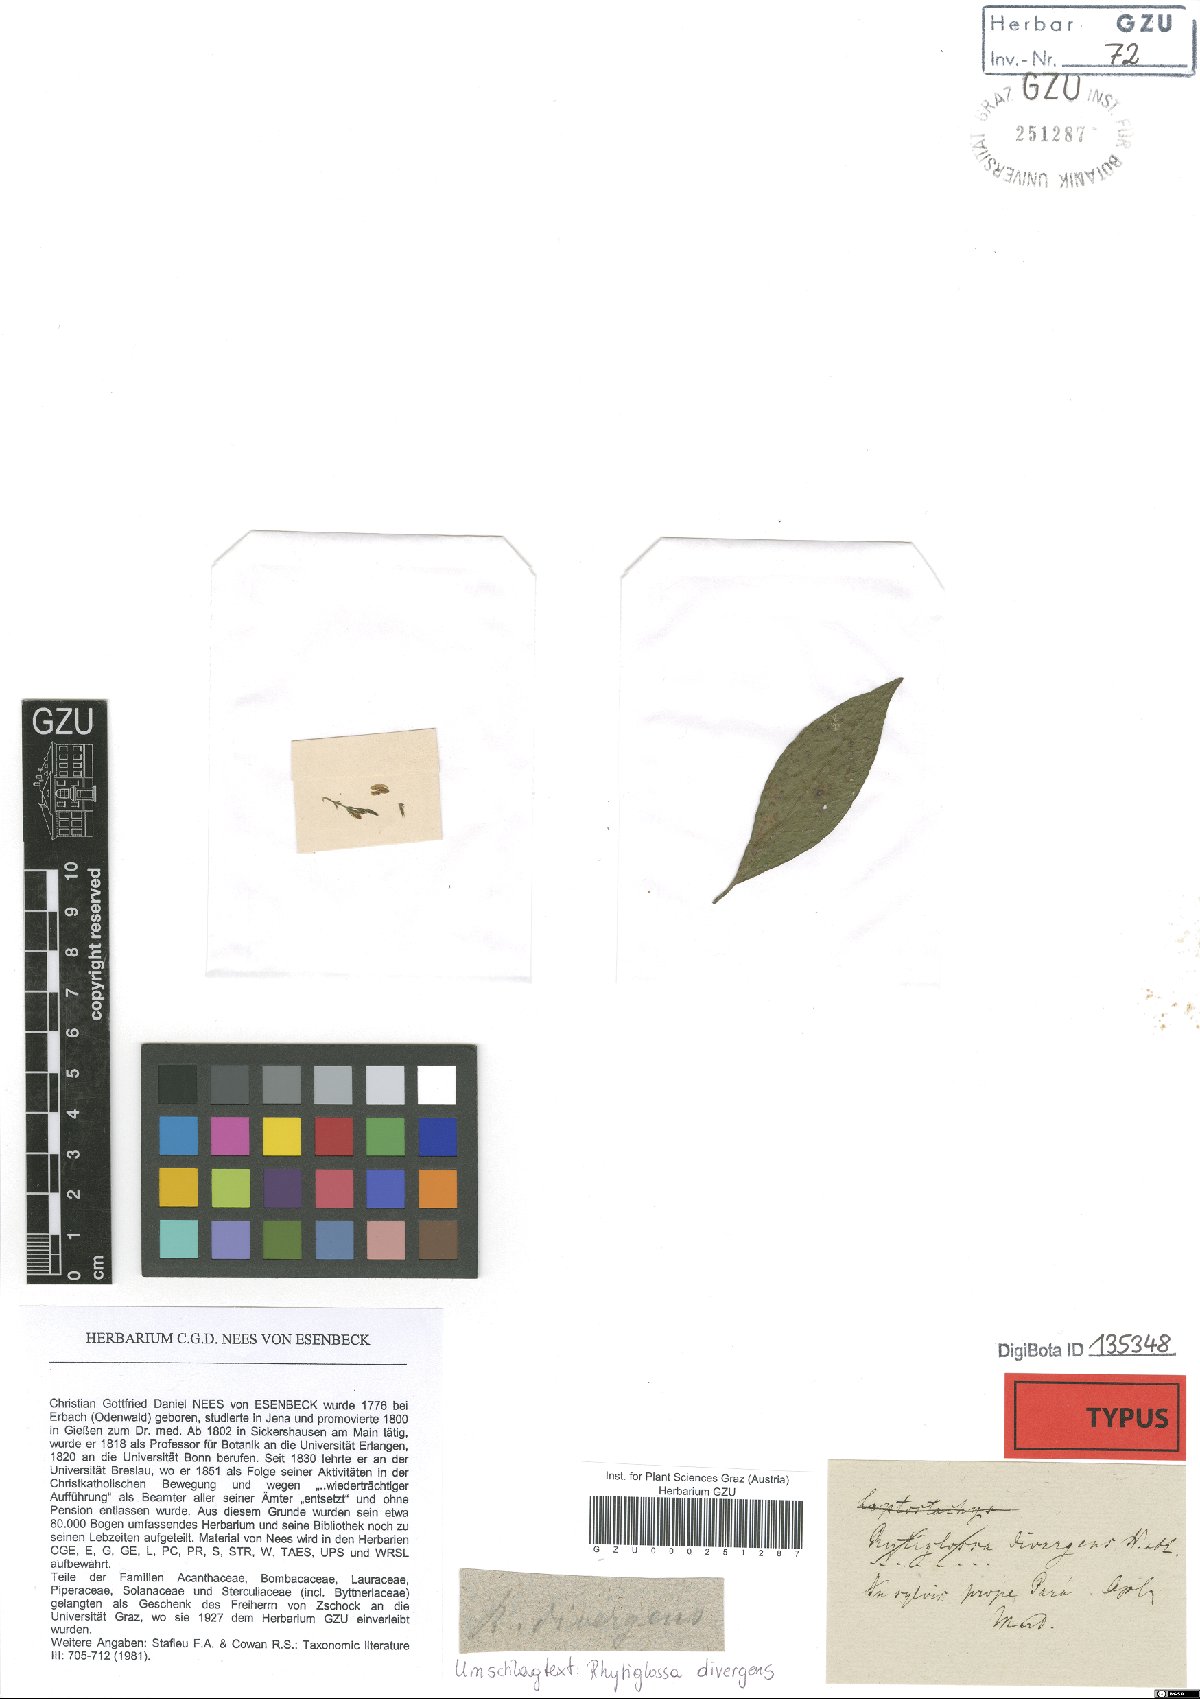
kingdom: Plantae
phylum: Tracheophyta
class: Magnoliopsida
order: Lamiales
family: Acanthaceae
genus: Justicia
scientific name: Justicia divergens
